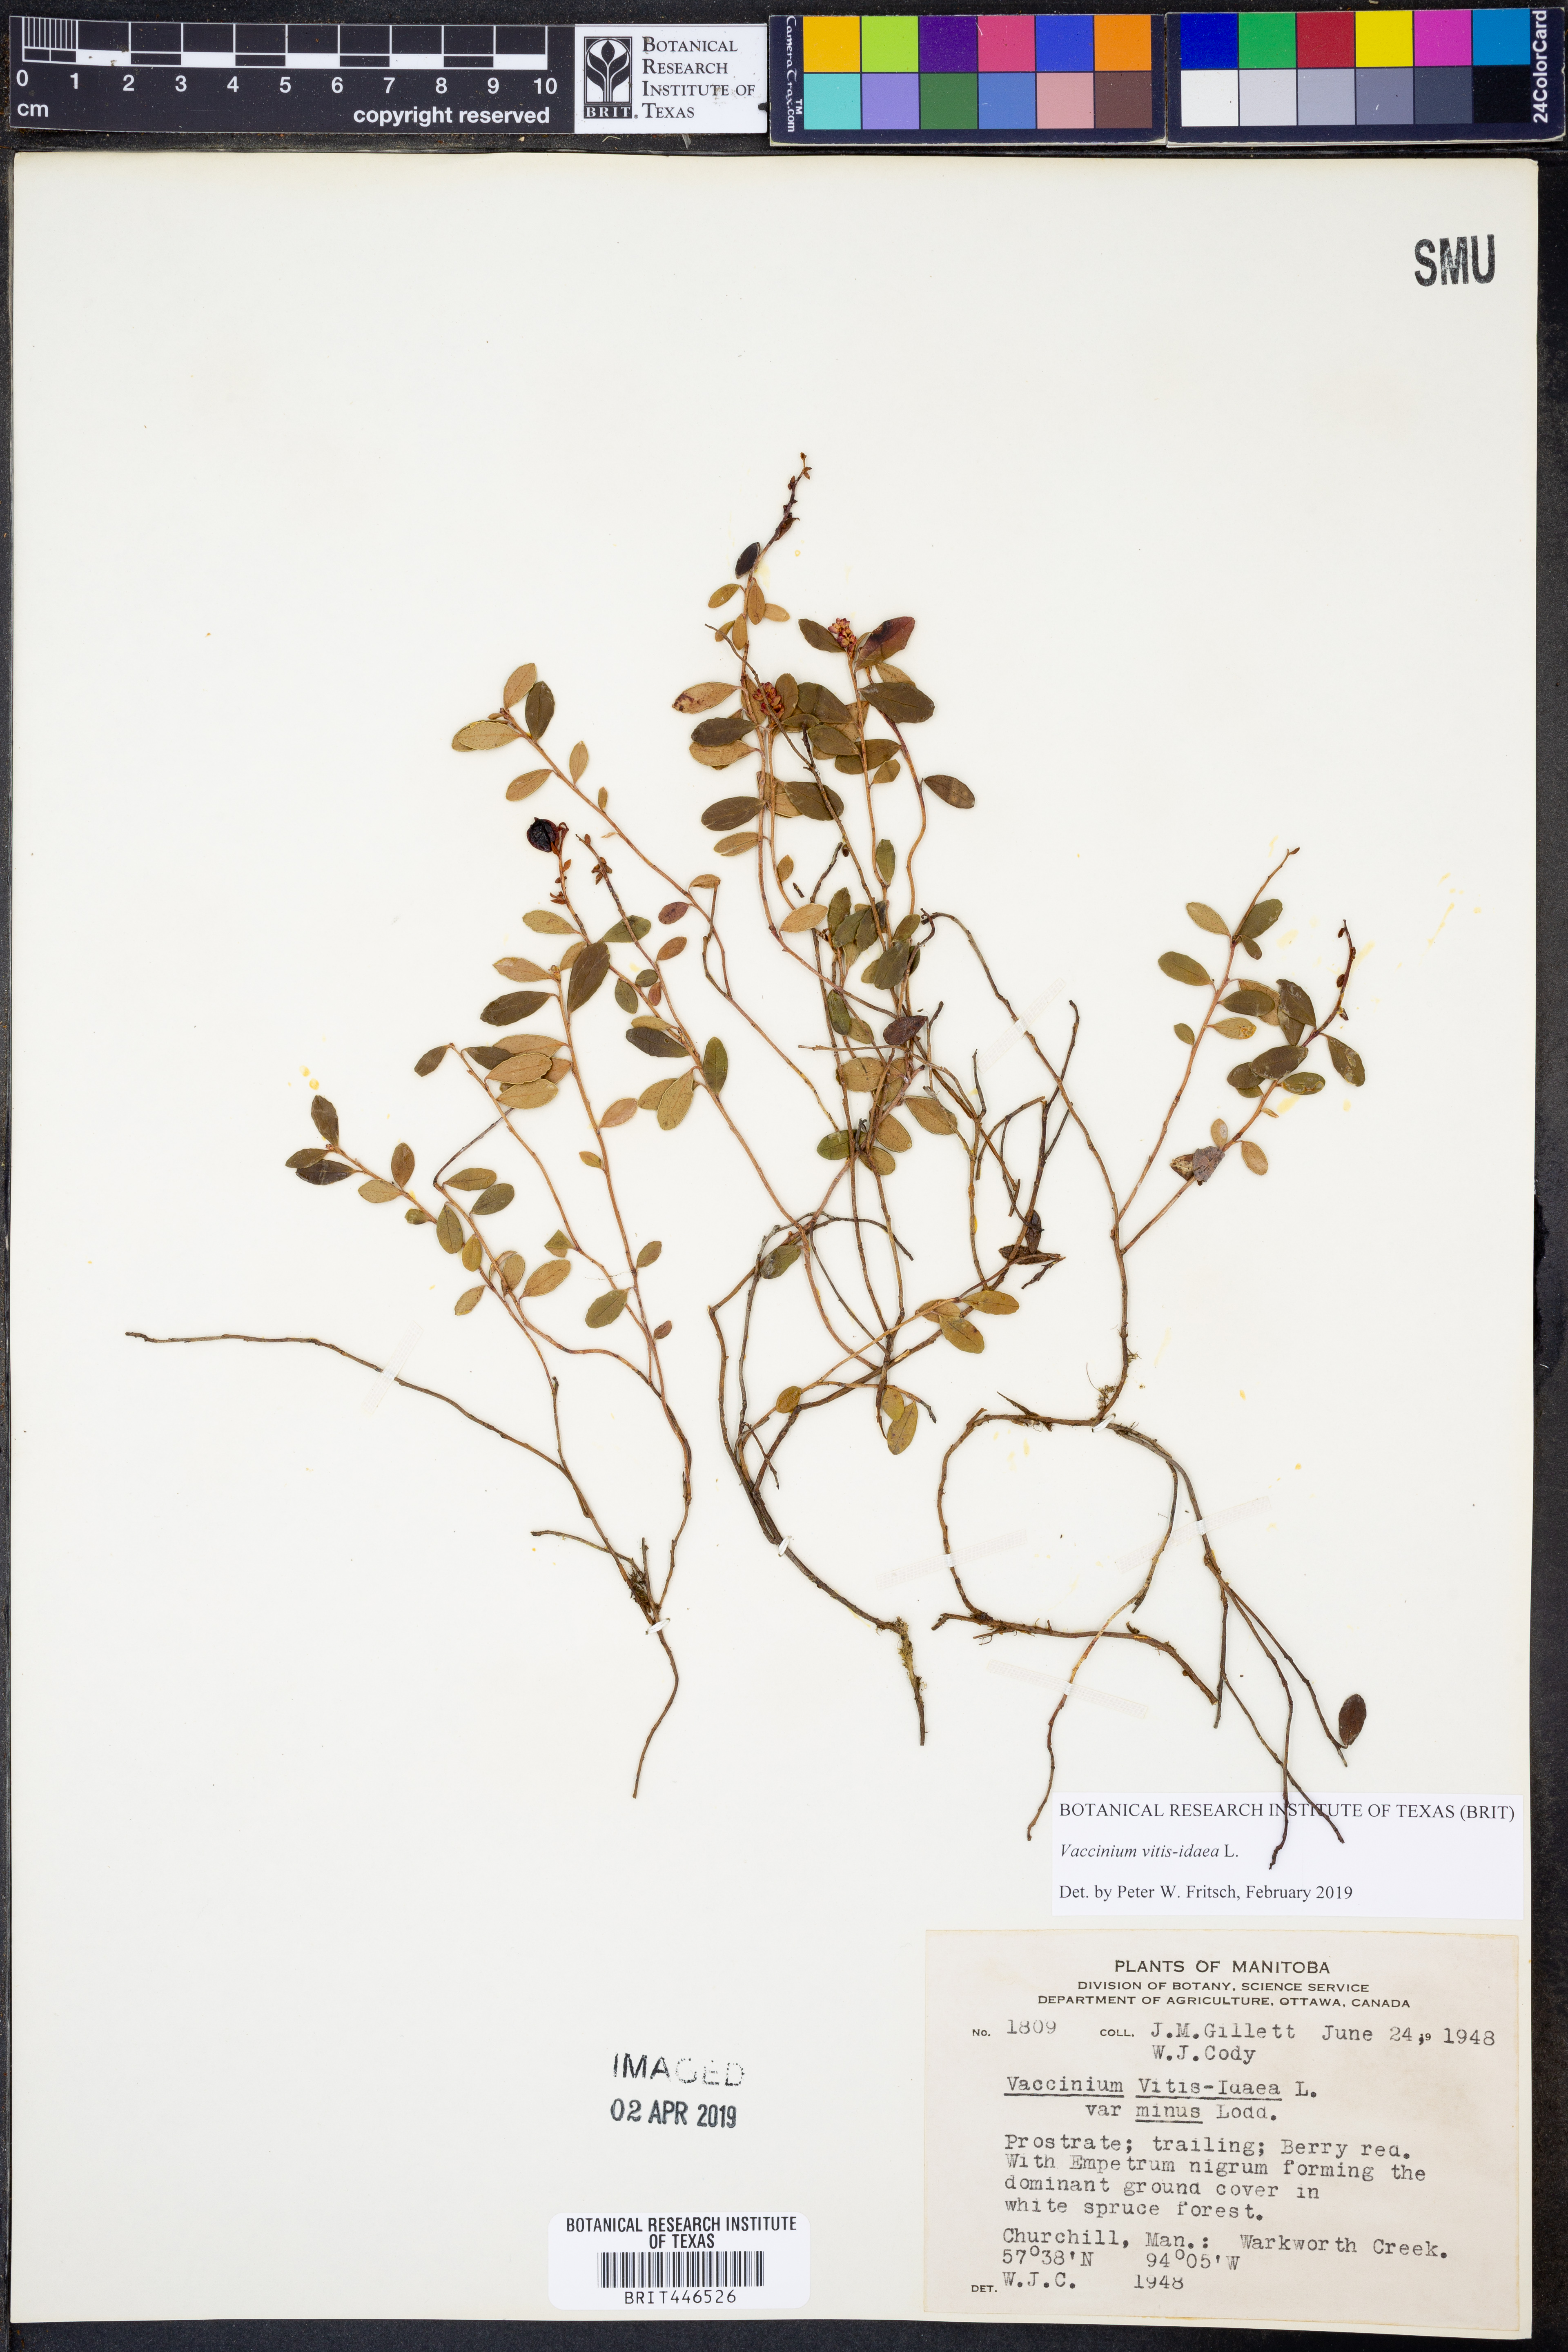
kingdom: Plantae
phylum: Tracheophyta
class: Magnoliopsida
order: Ericales
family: Ericaceae
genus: Vaccinium
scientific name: Vaccinium vitis-idaea
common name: Cowberry
